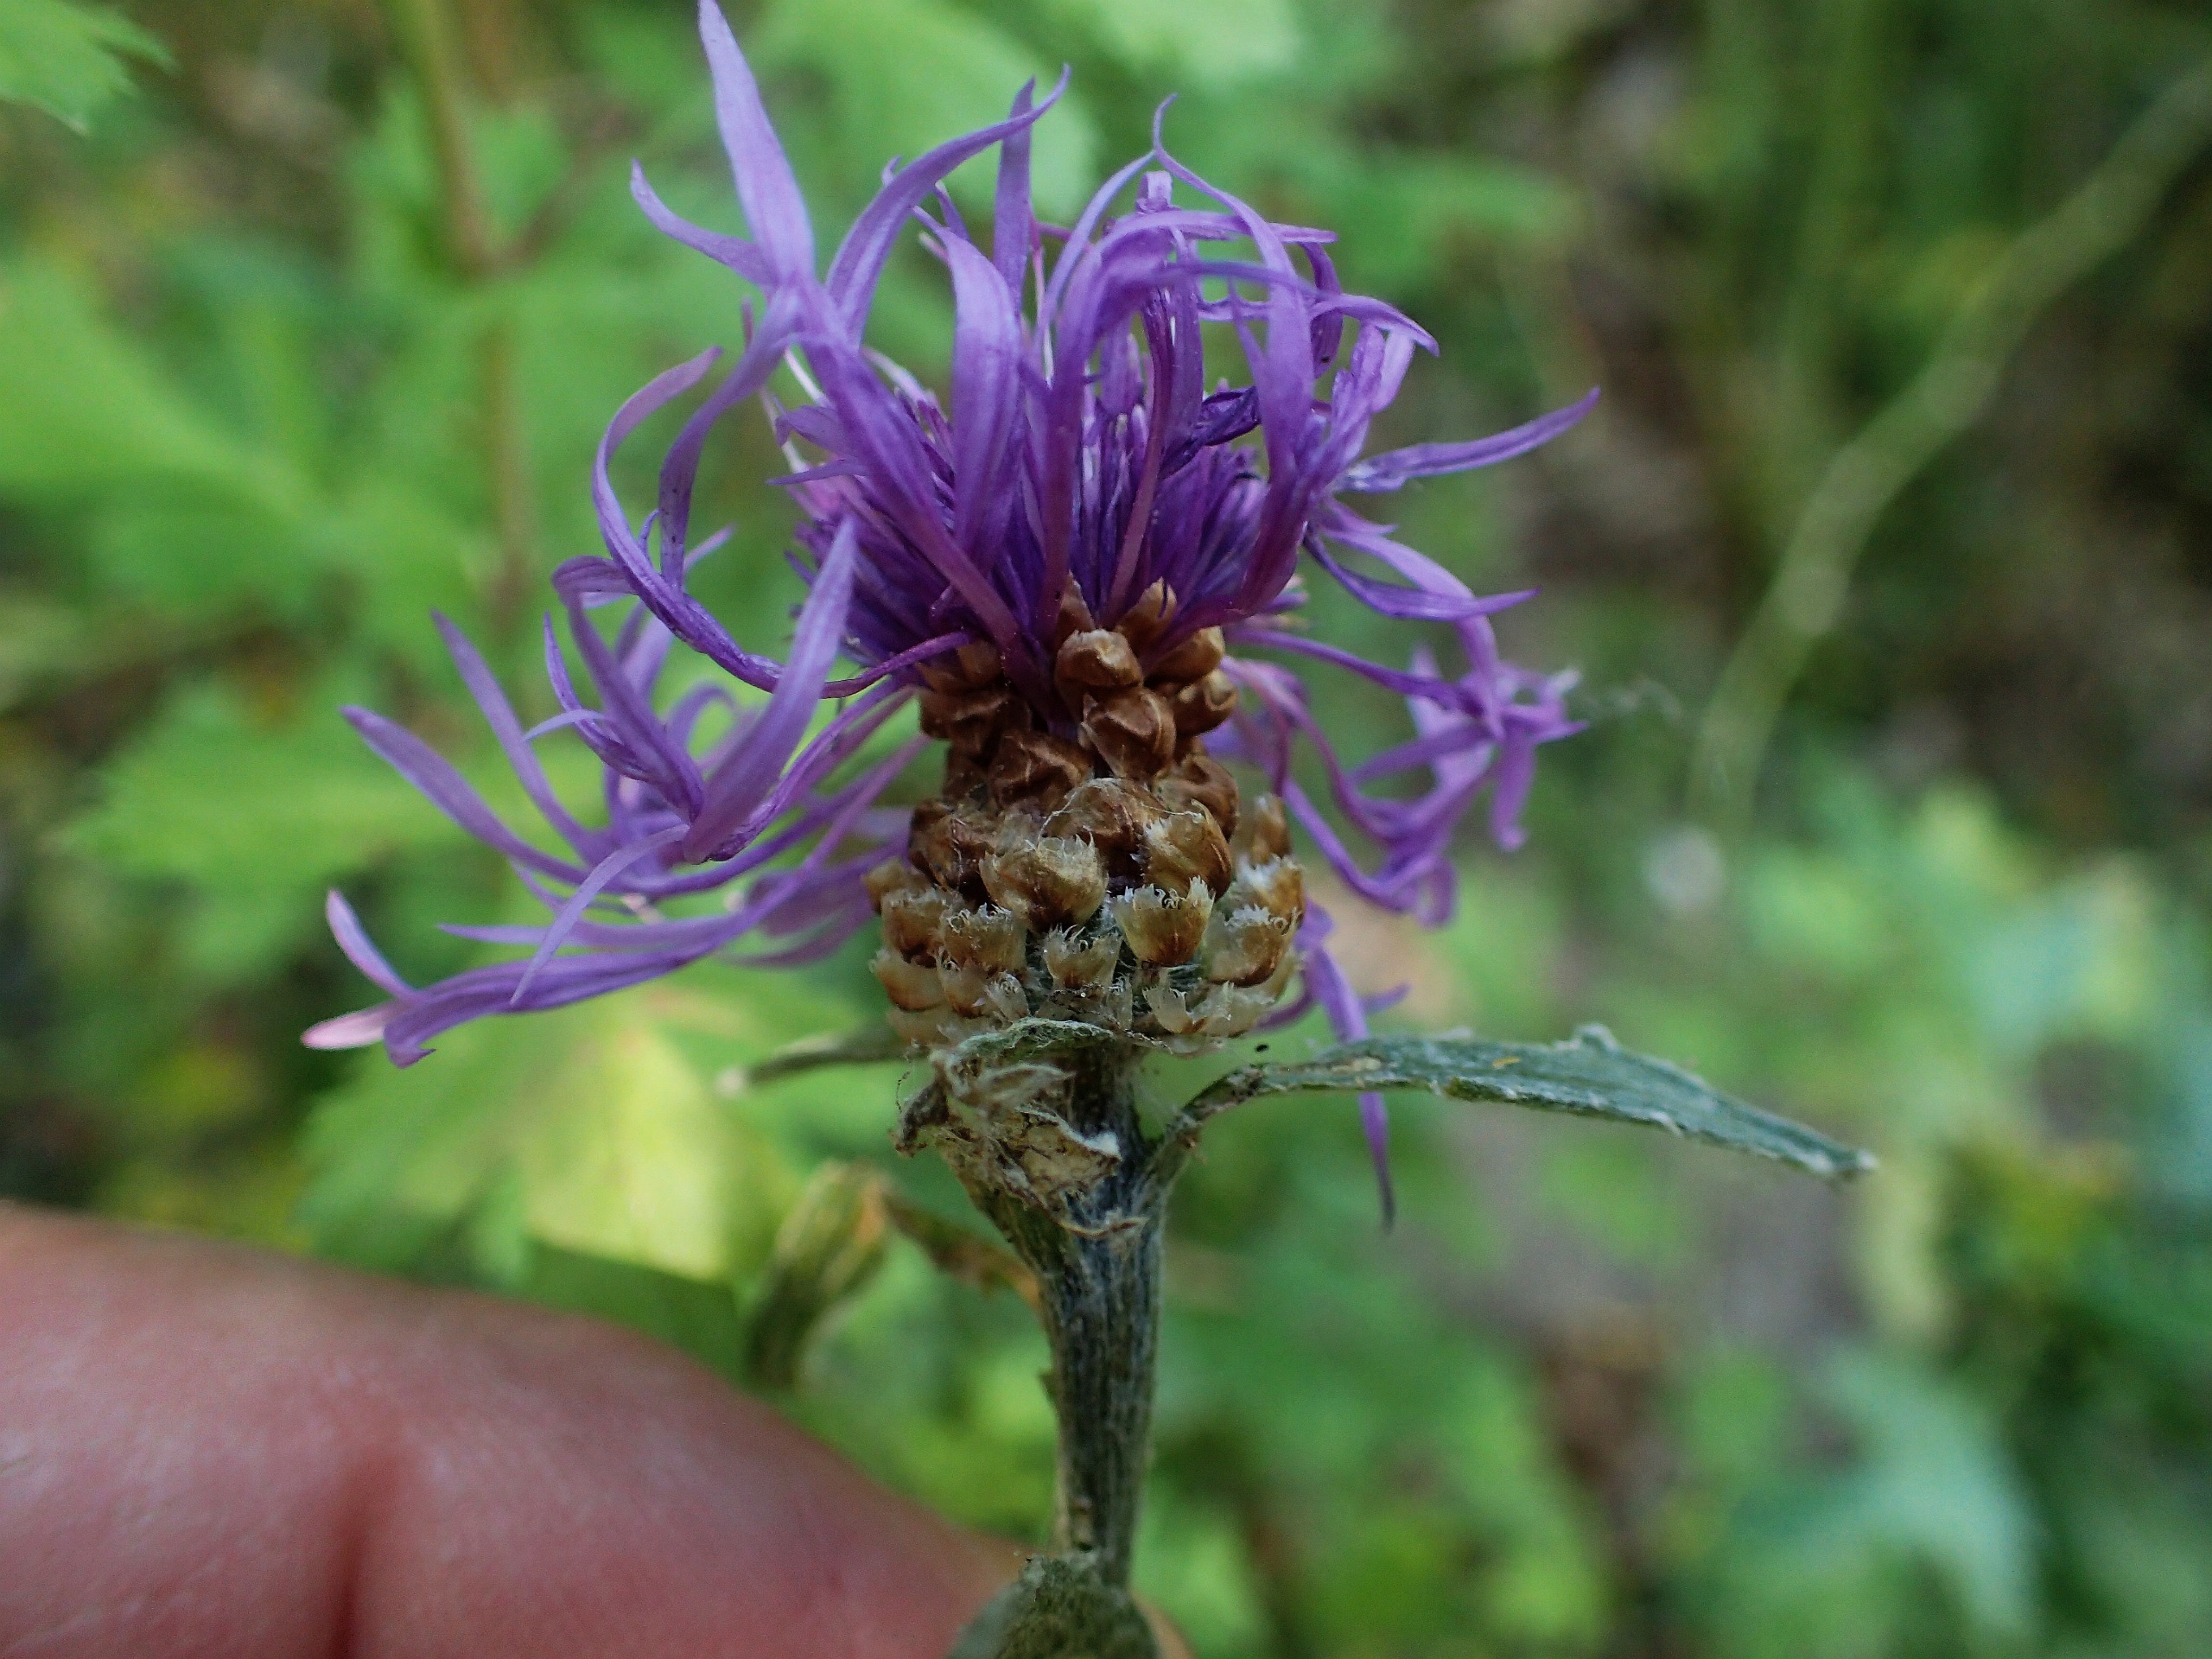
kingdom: Plantae
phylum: Tracheophyta
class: Magnoliopsida
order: Asterales
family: Asteraceae
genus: Centaurea
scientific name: Centaurea jacea
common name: Almindelig knopurt
